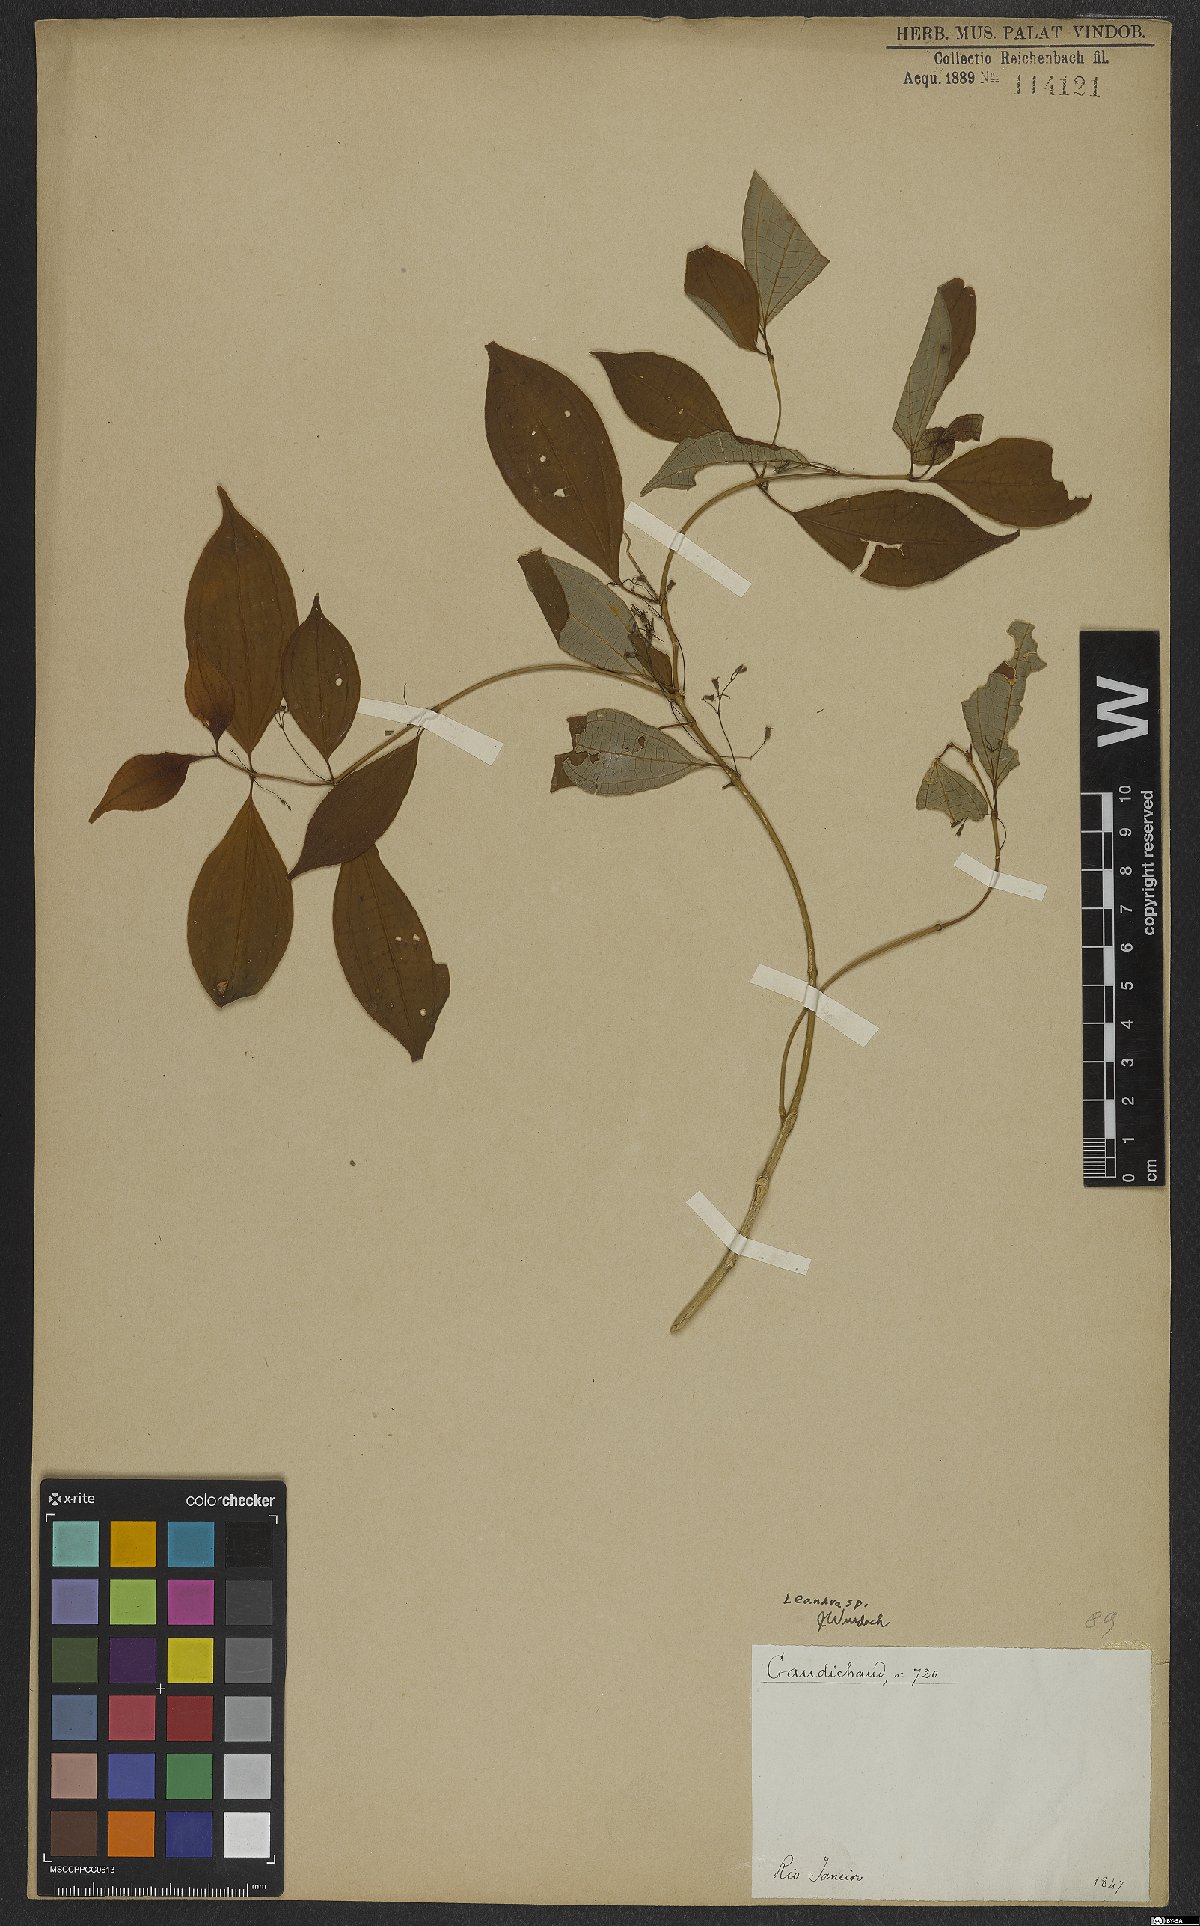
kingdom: Plantae
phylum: Tracheophyta
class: Magnoliopsida
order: Myrtales
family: Melastomataceae
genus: Miconia
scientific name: Miconia
